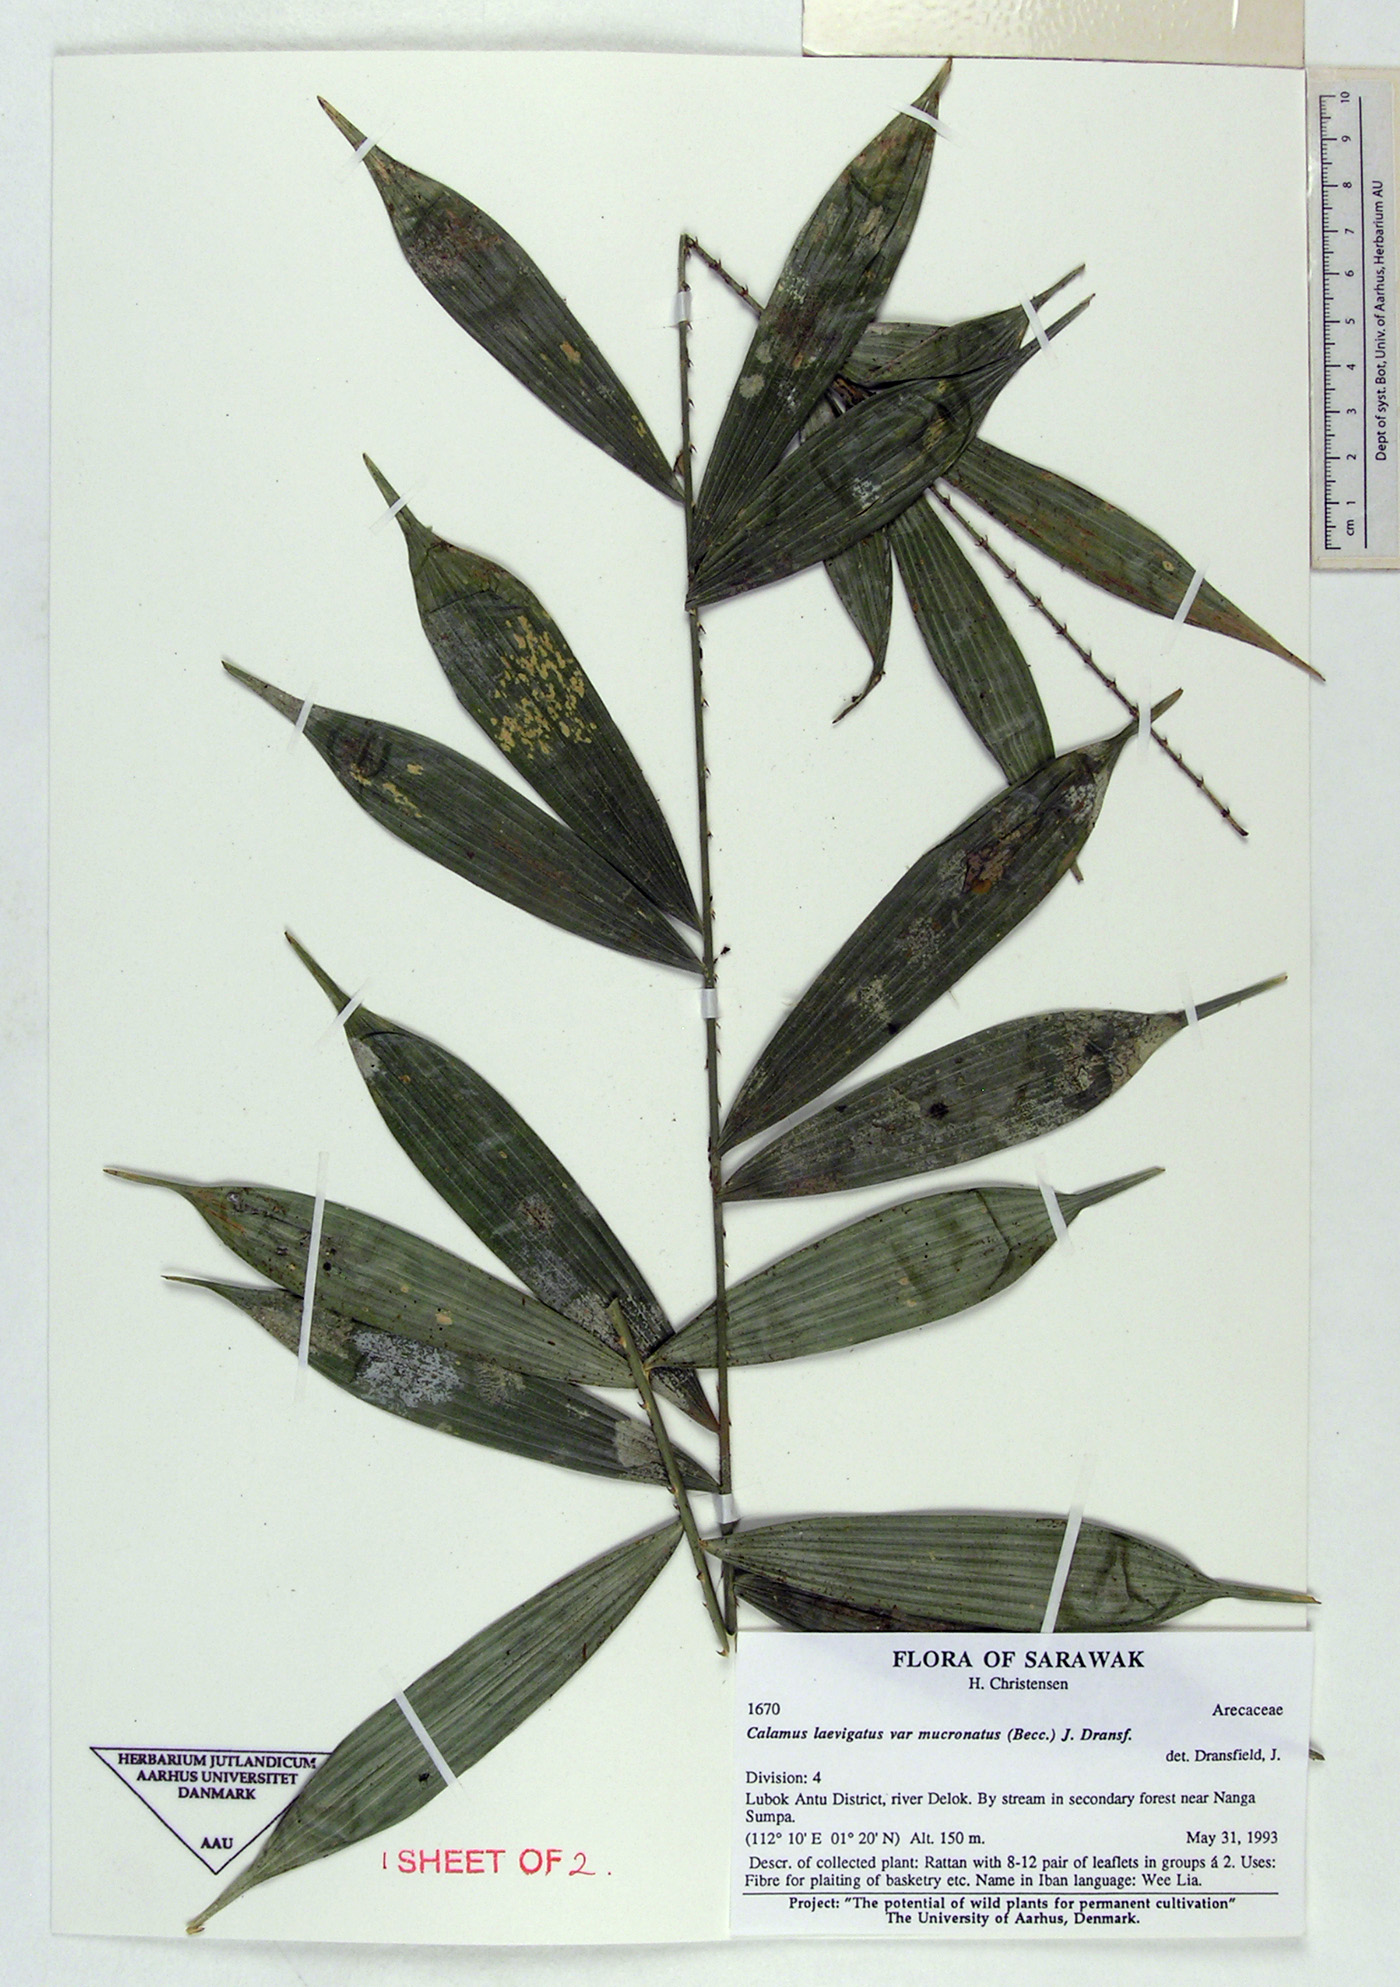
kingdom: Plantae
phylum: Tracheophyta
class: Liliopsida
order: Arecales
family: Arecaceae
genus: Calamus
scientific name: Calamus laevigatus
